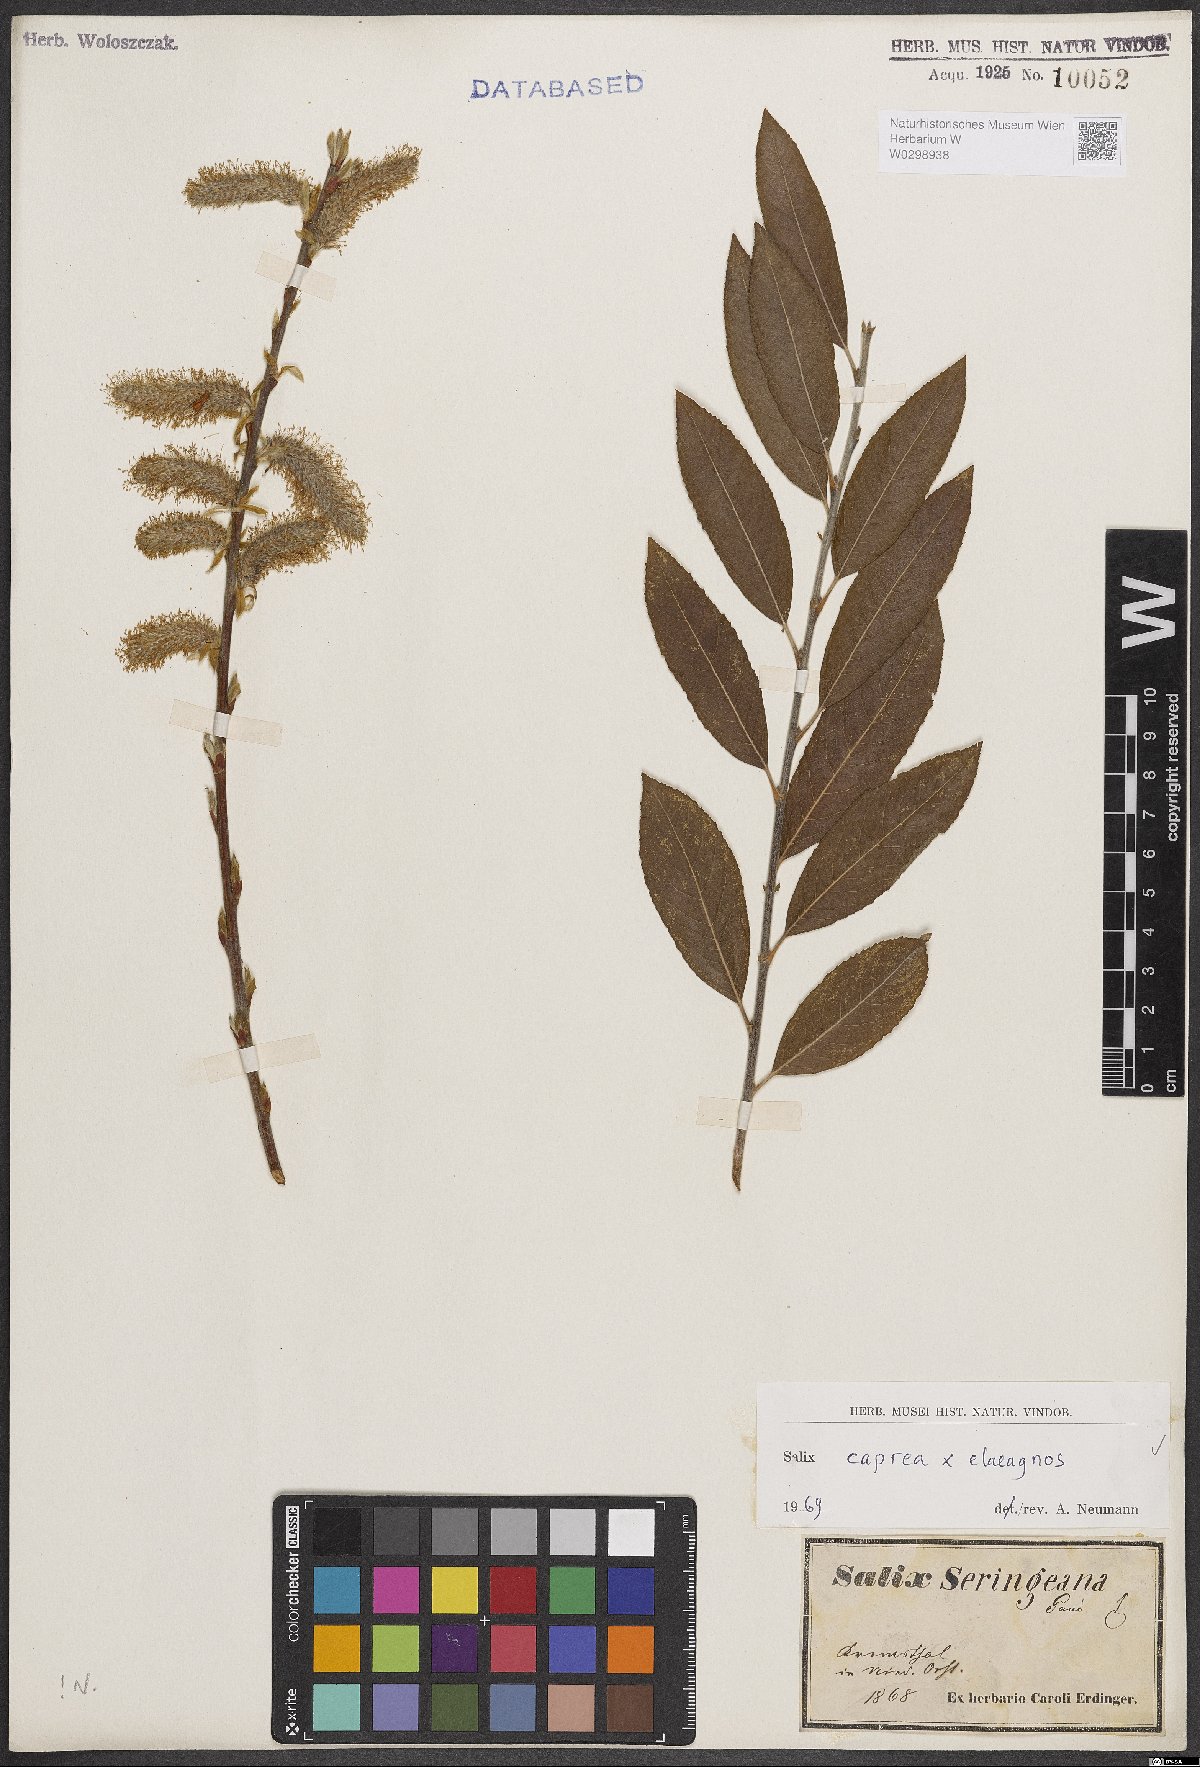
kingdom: Plantae
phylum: Tracheophyta
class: Magnoliopsida
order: Malpighiales
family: Salicaceae
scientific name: Salicaceae
